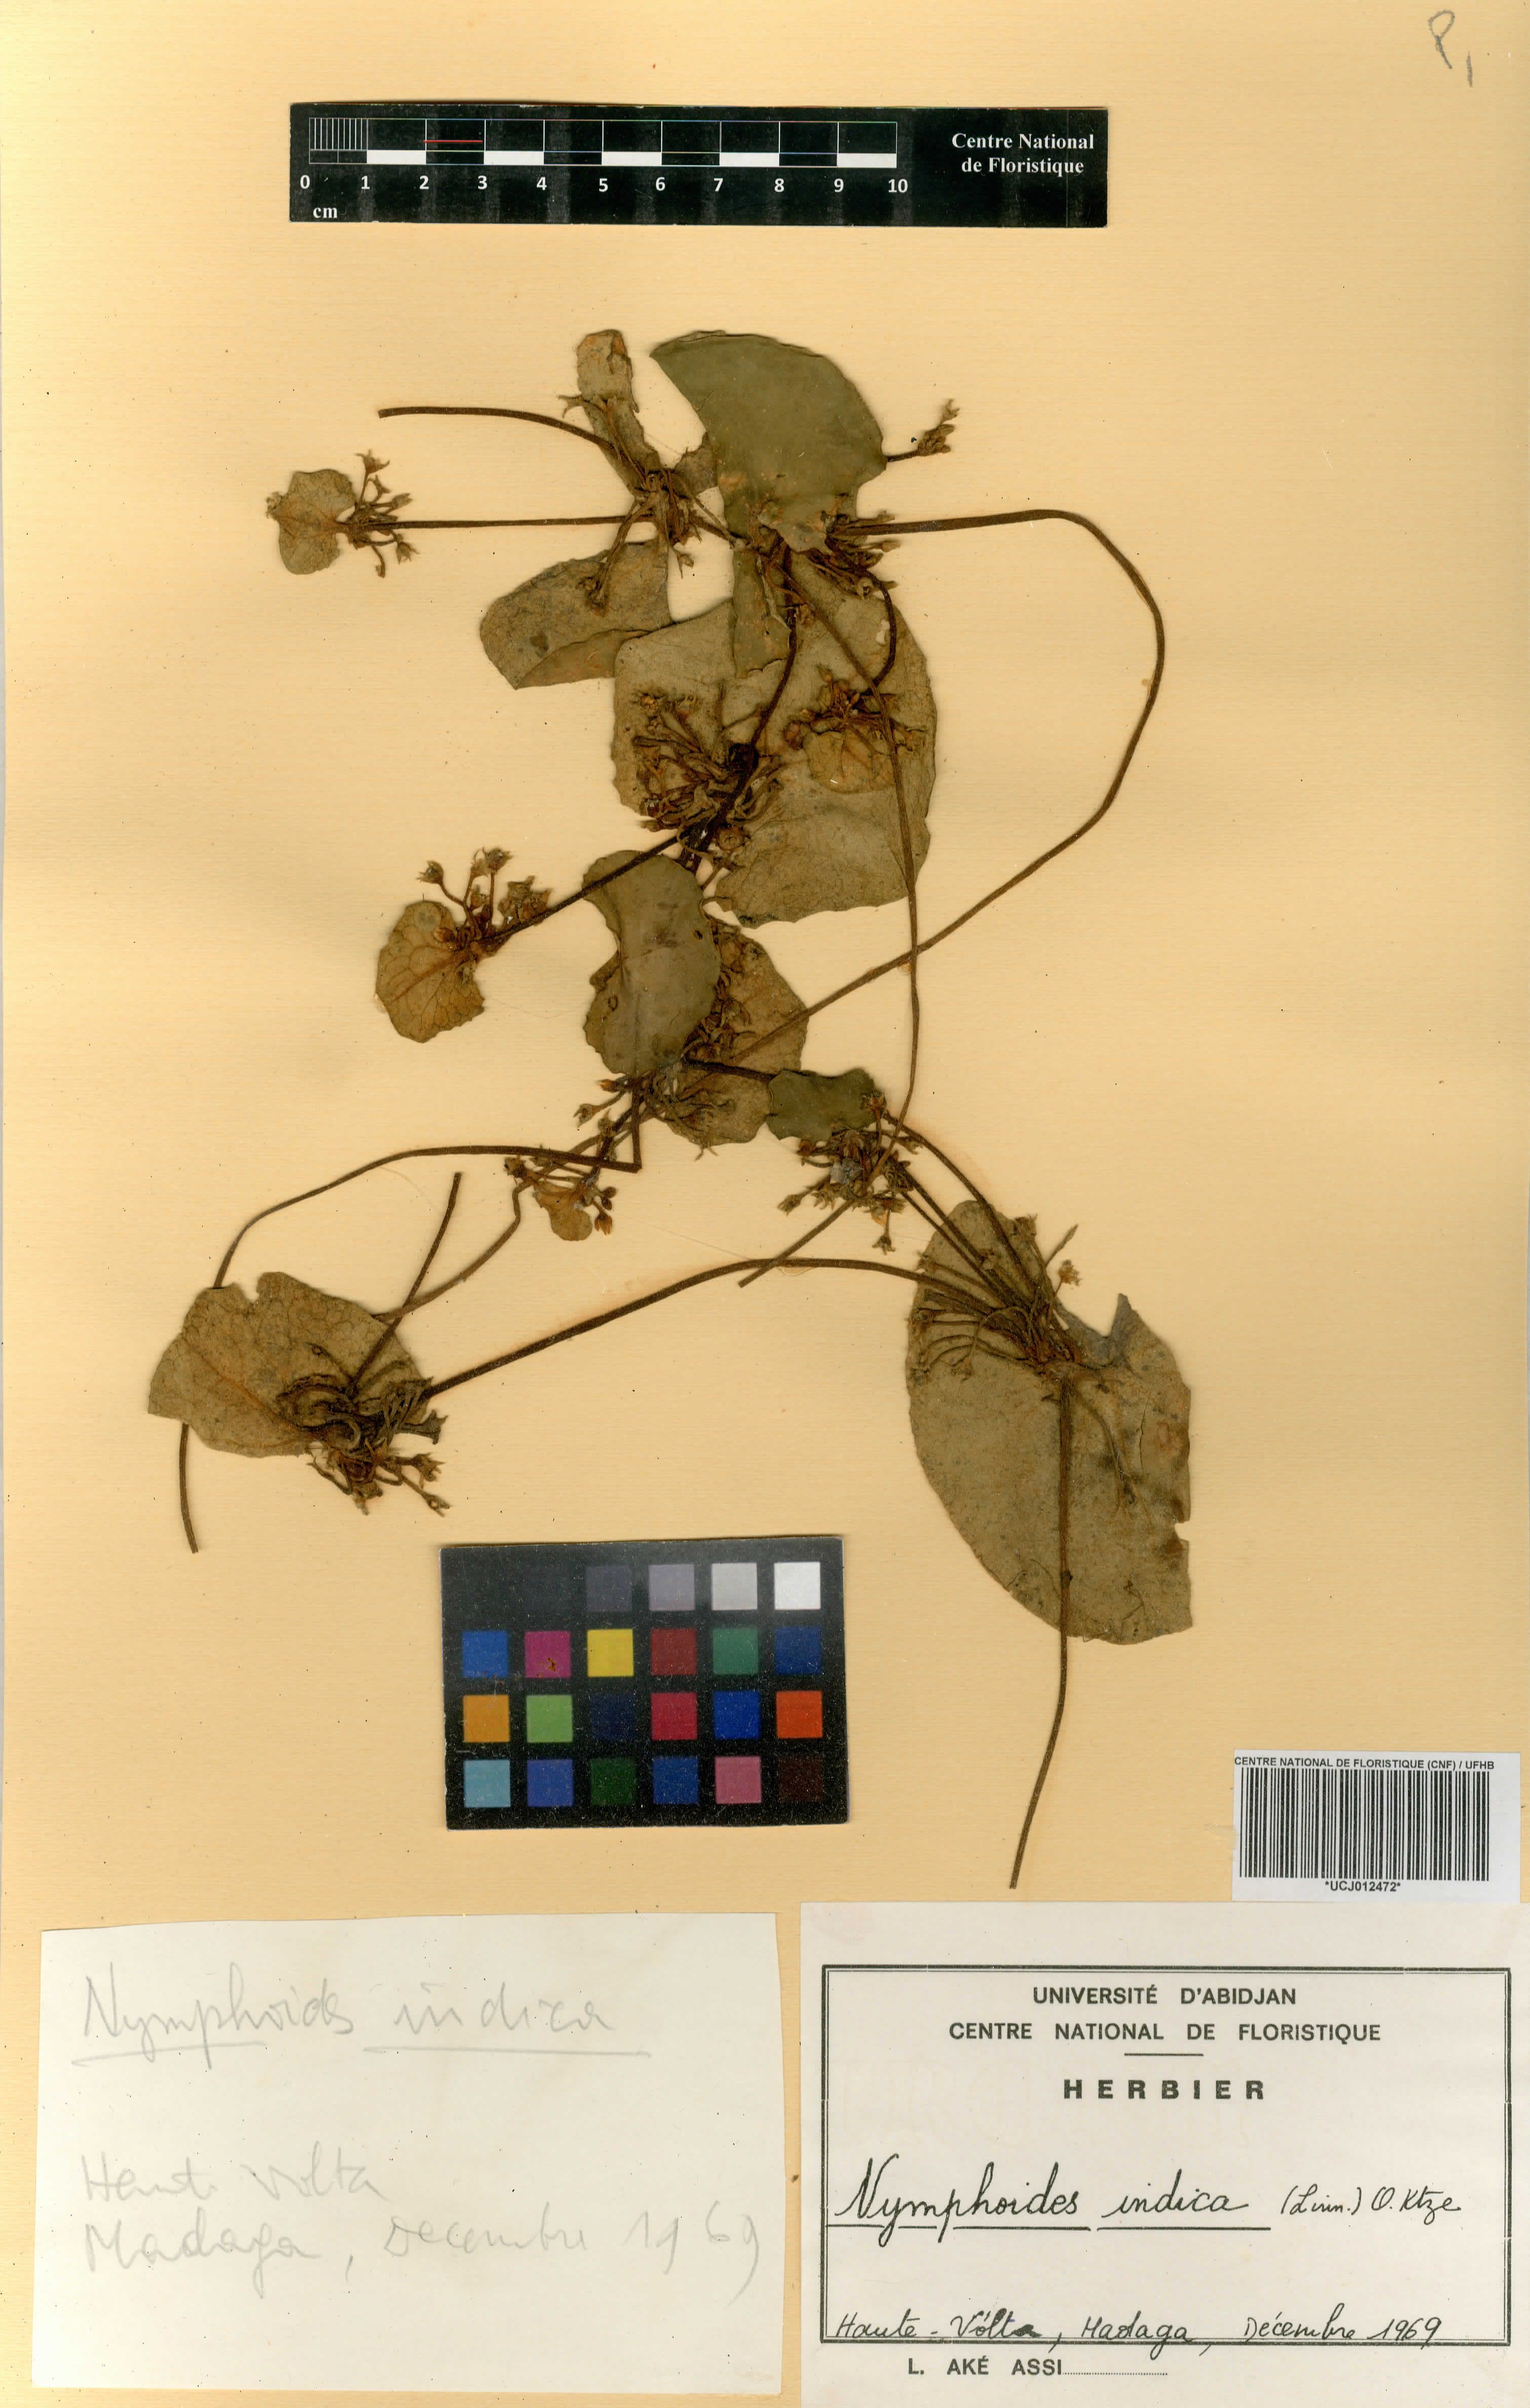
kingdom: Plantae
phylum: Tracheophyta
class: Magnoliopsida
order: Asterales
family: Menyanthaceae
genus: Nymphoides
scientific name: Nymphoides indica
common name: Water-snowflake
